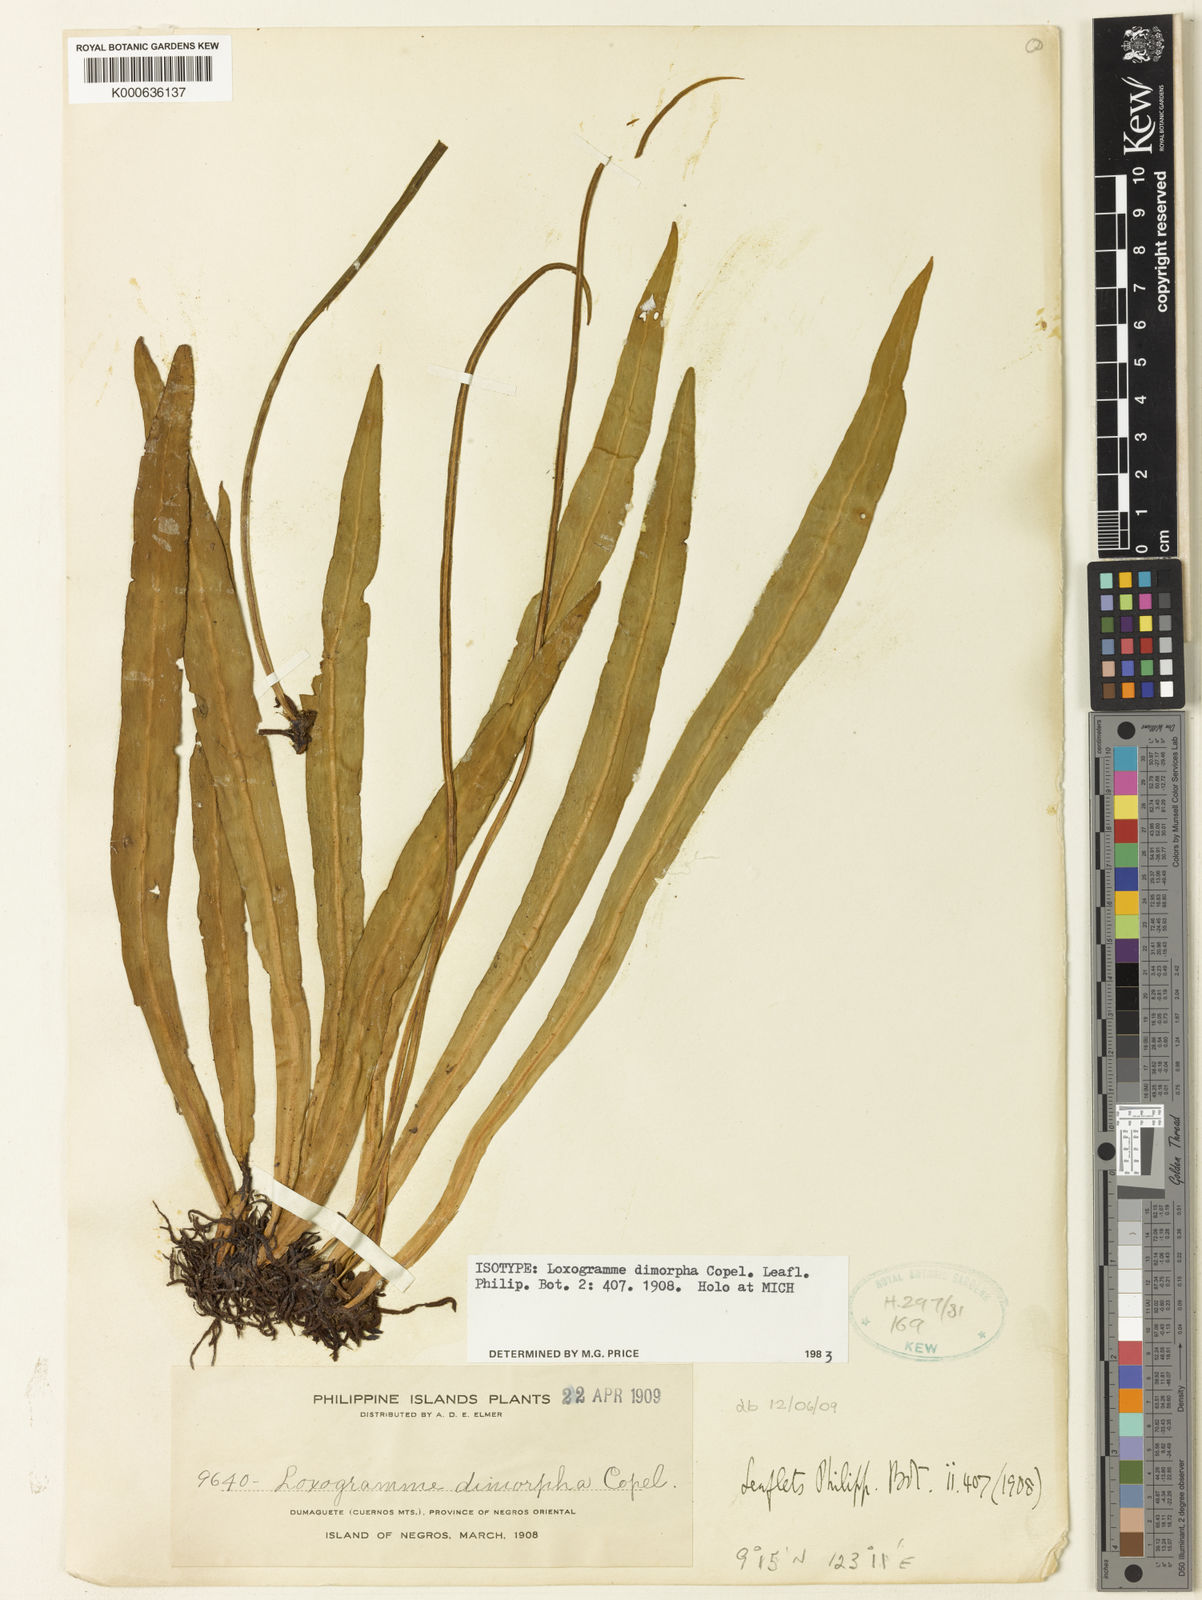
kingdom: Plantae
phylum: Tracheophyta
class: Polypodiopsida
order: Polypodiales
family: Polypodiaceae
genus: Loxogramme
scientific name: Loxogramme dimorpha
